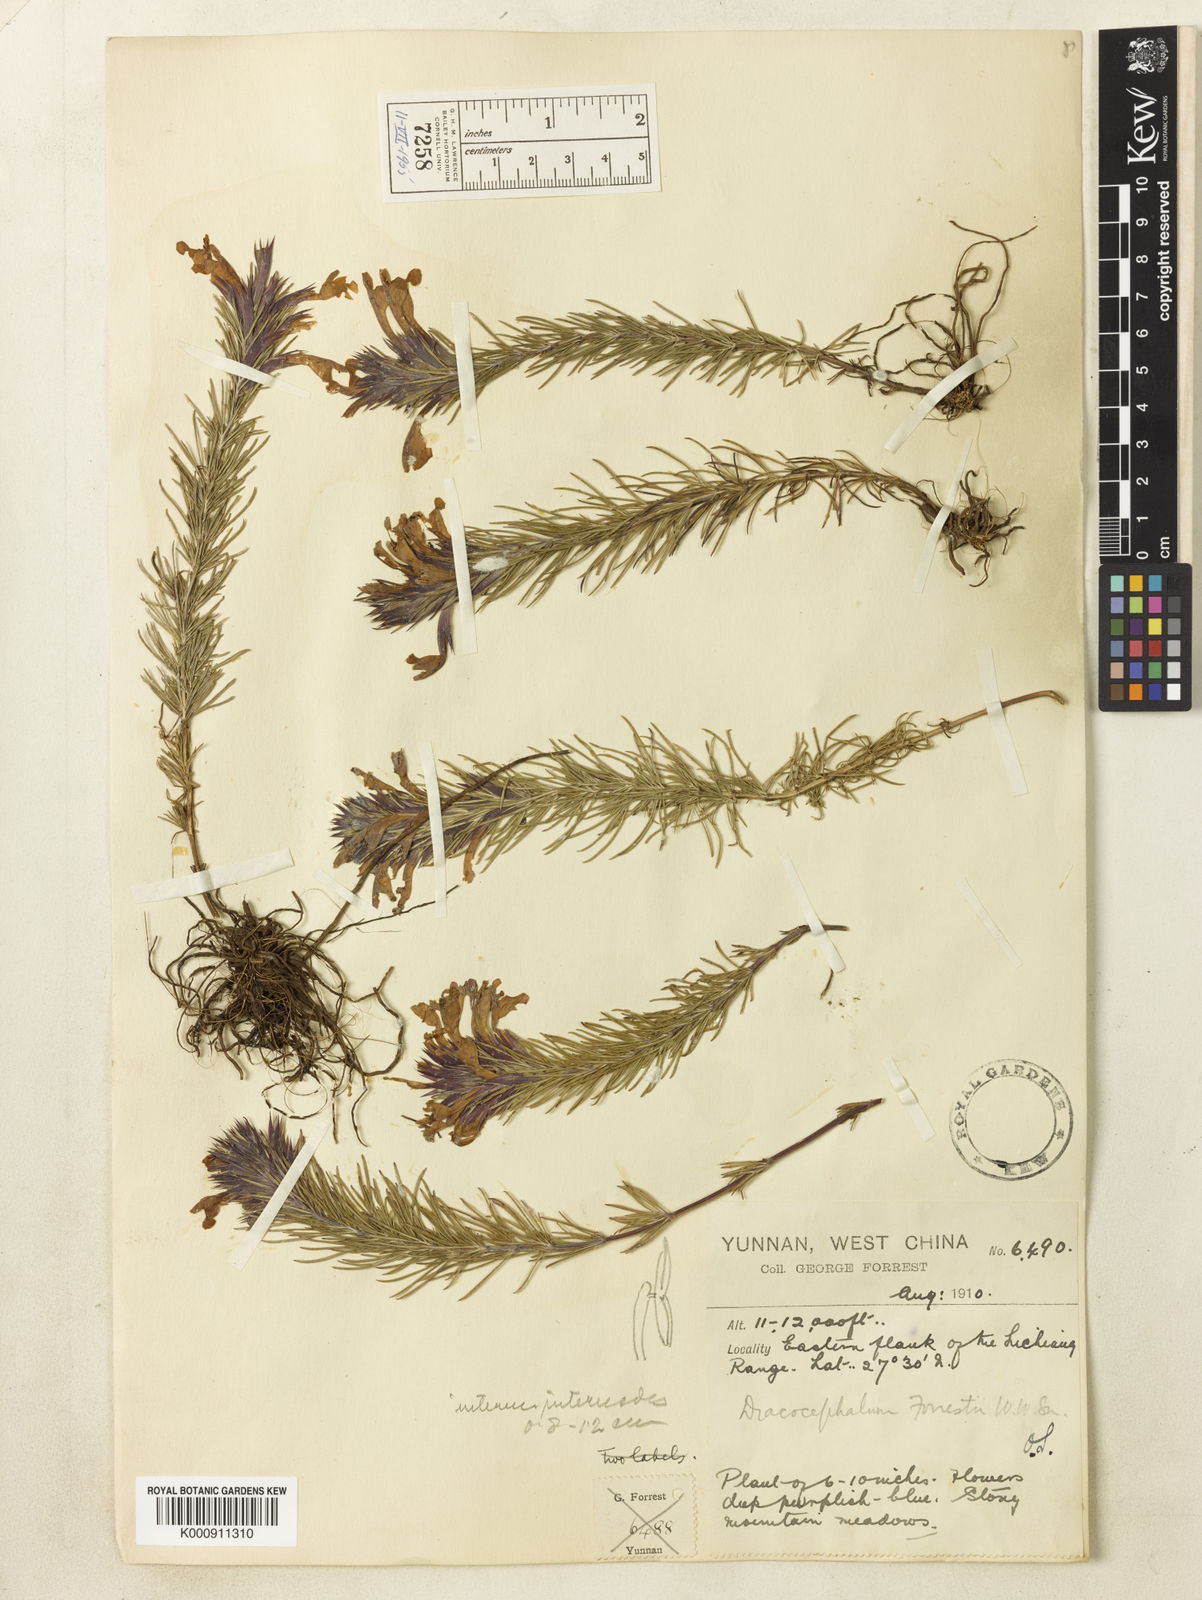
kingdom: Plantae
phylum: Tracheophyta
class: Magnoliopsida
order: Lamiales
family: Lamiaceae
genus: Dracocephalum
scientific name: Dracocephalum forrestii
